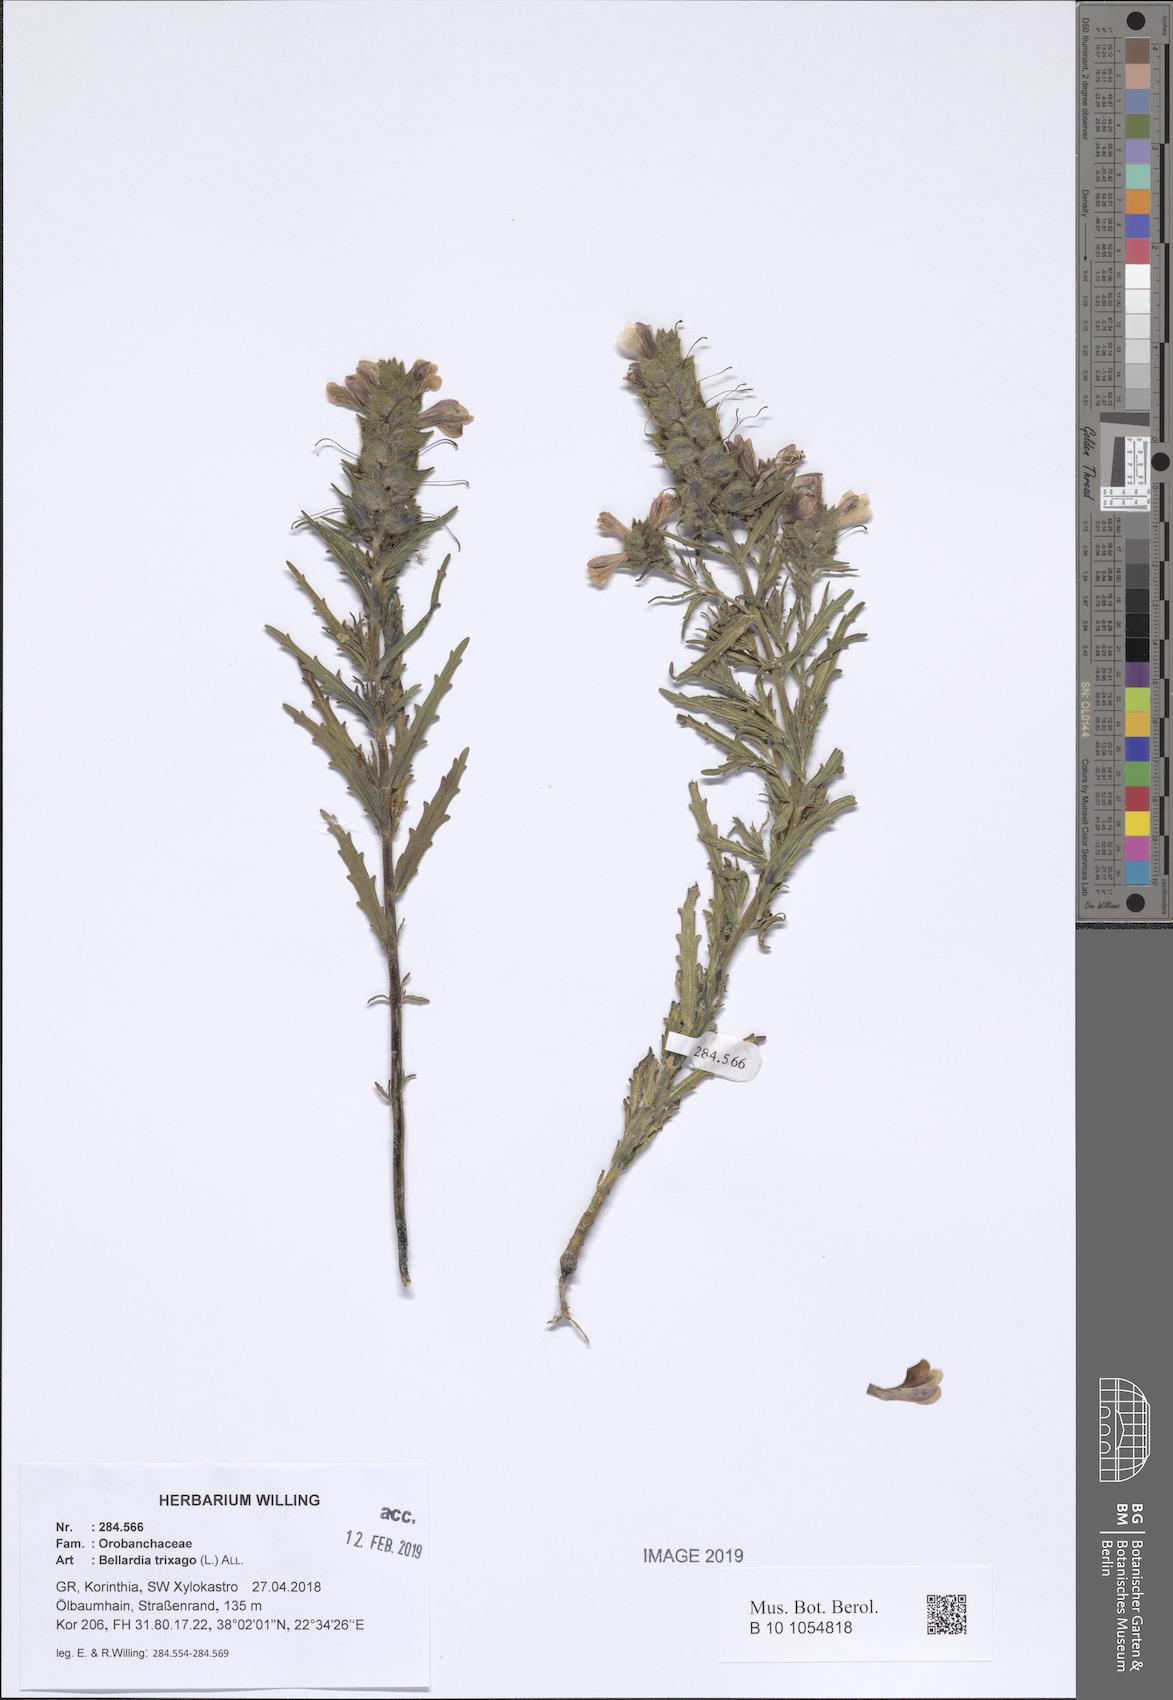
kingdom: Plantae
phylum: Tracheophyta
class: Magnoliopsida
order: Lamiales
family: Orobanchaceae
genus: Bellardia
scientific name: Bellardia trixago
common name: Mediterranean lineseed
